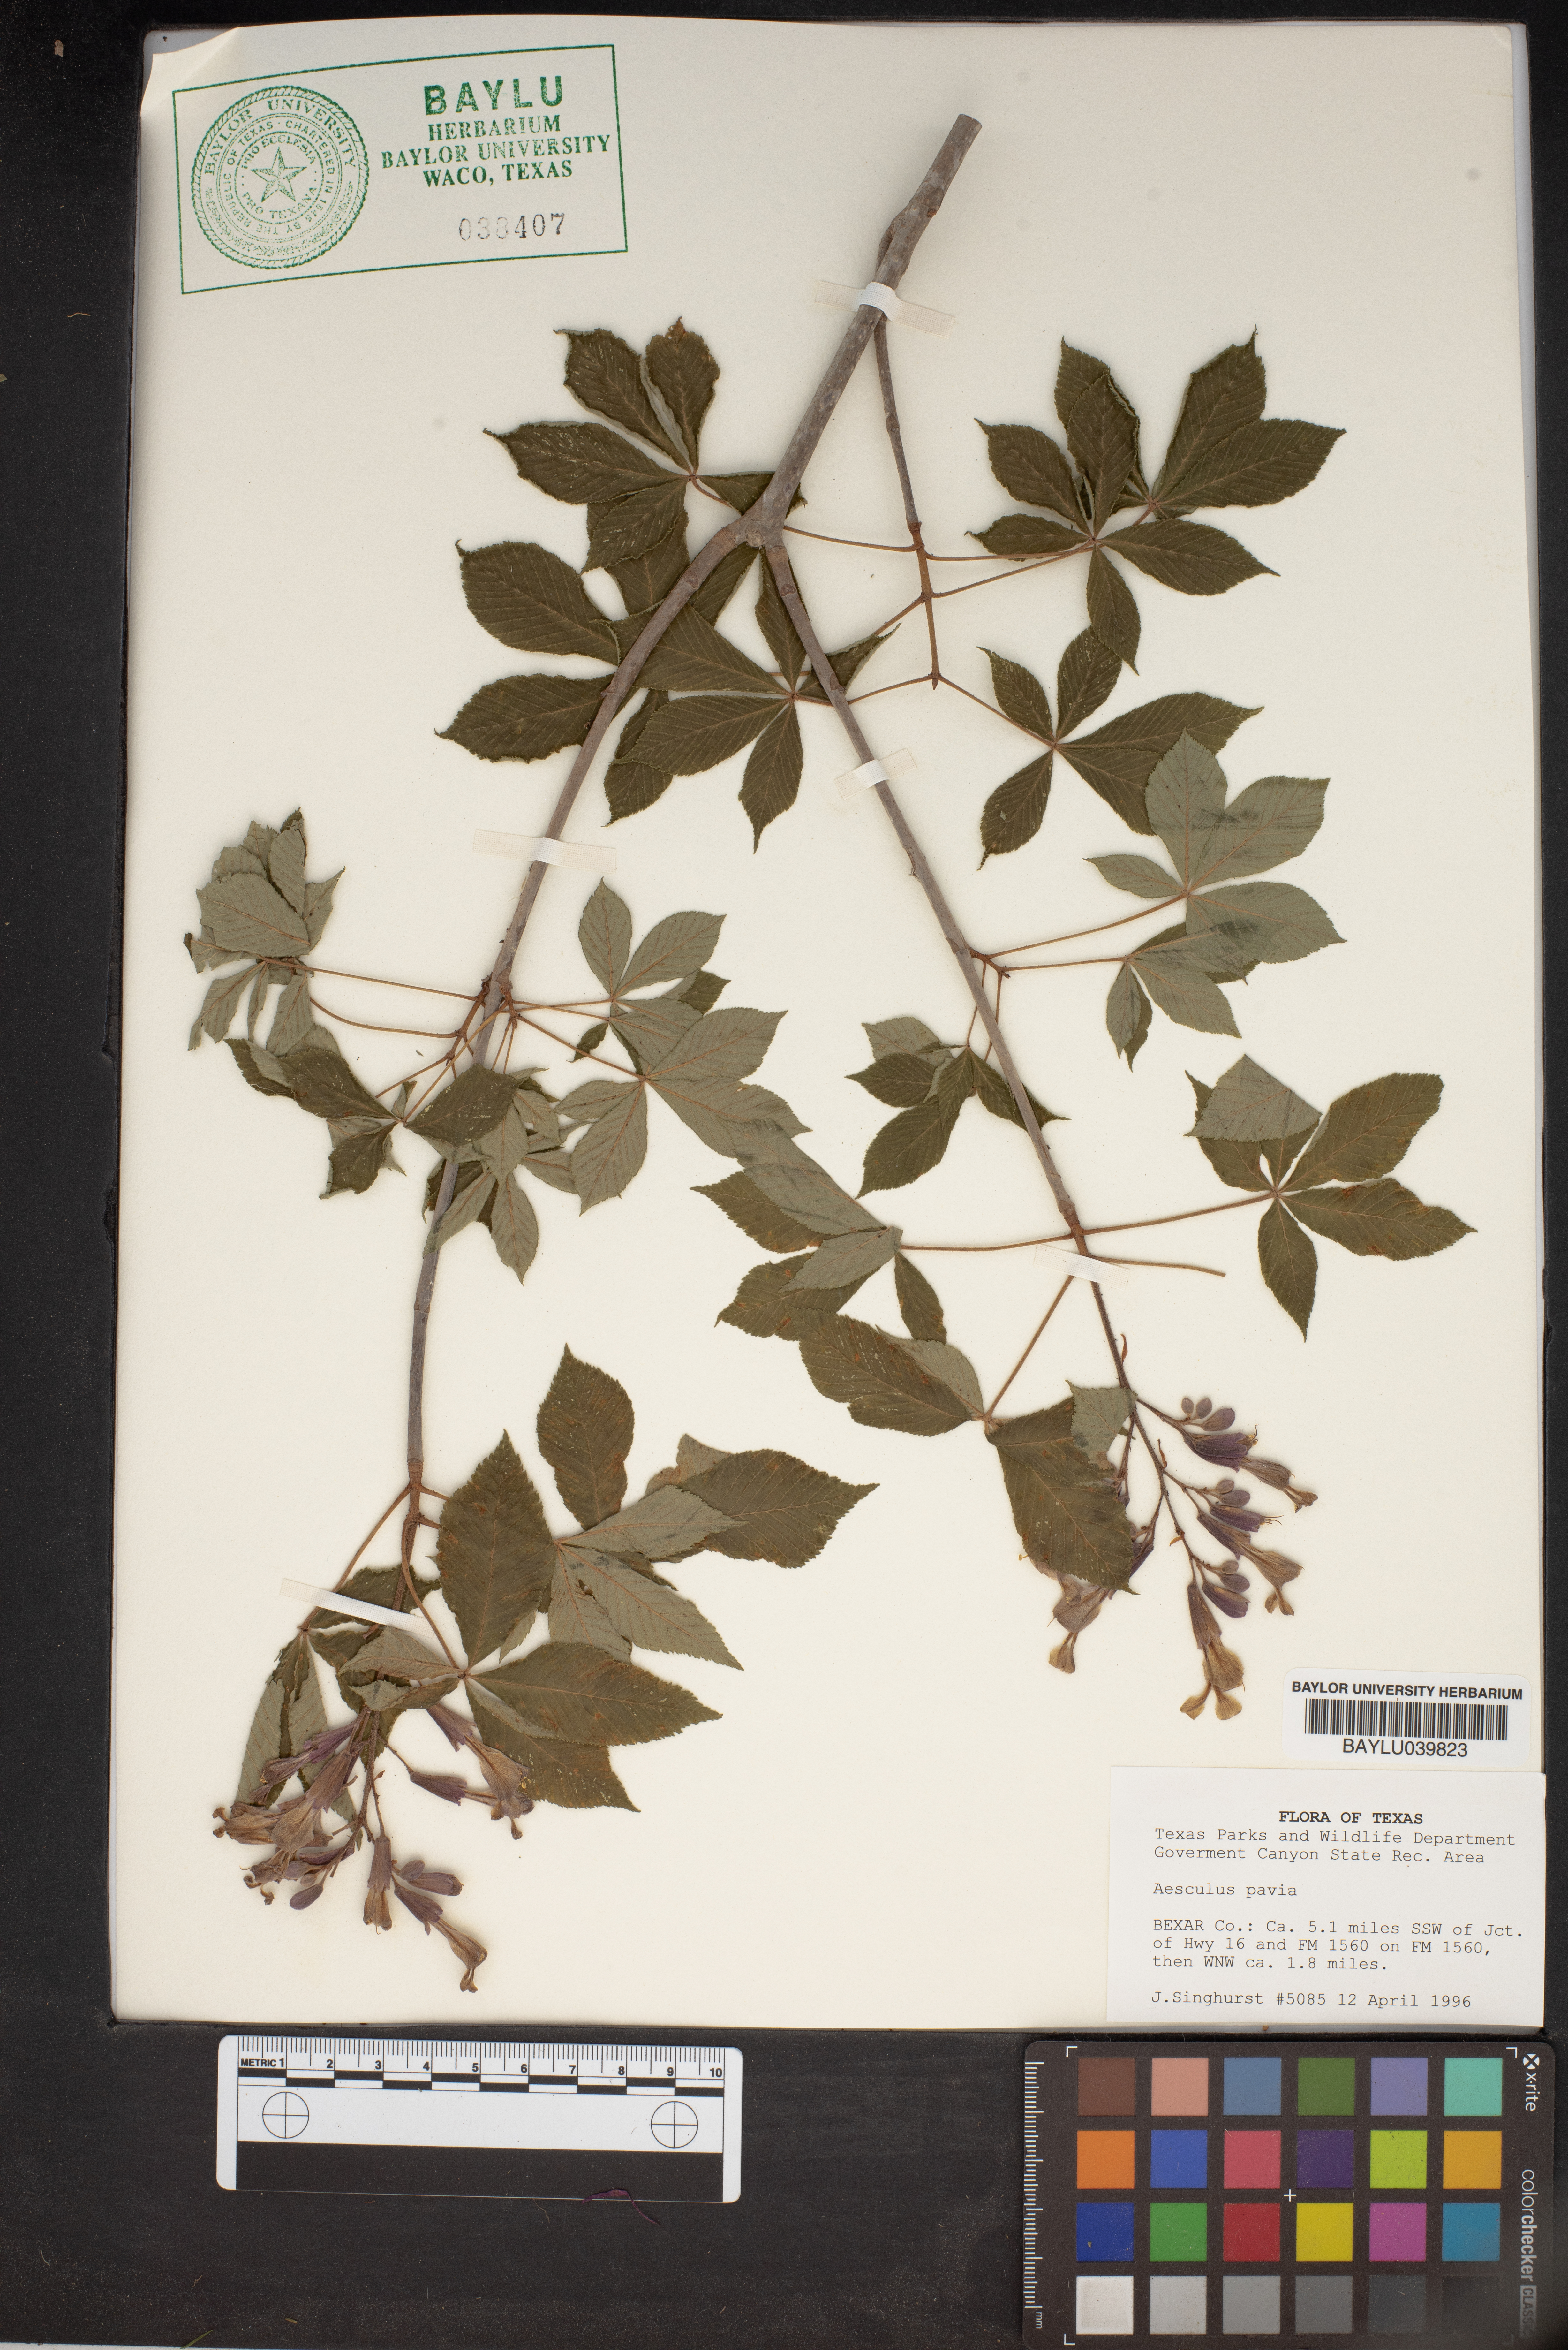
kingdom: Plantae
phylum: Tracheophyta
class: Magnoliopsida
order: Sapindales
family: Sapindaceae
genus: Aesculus
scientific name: Aesculus pavia
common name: Red buckeye
